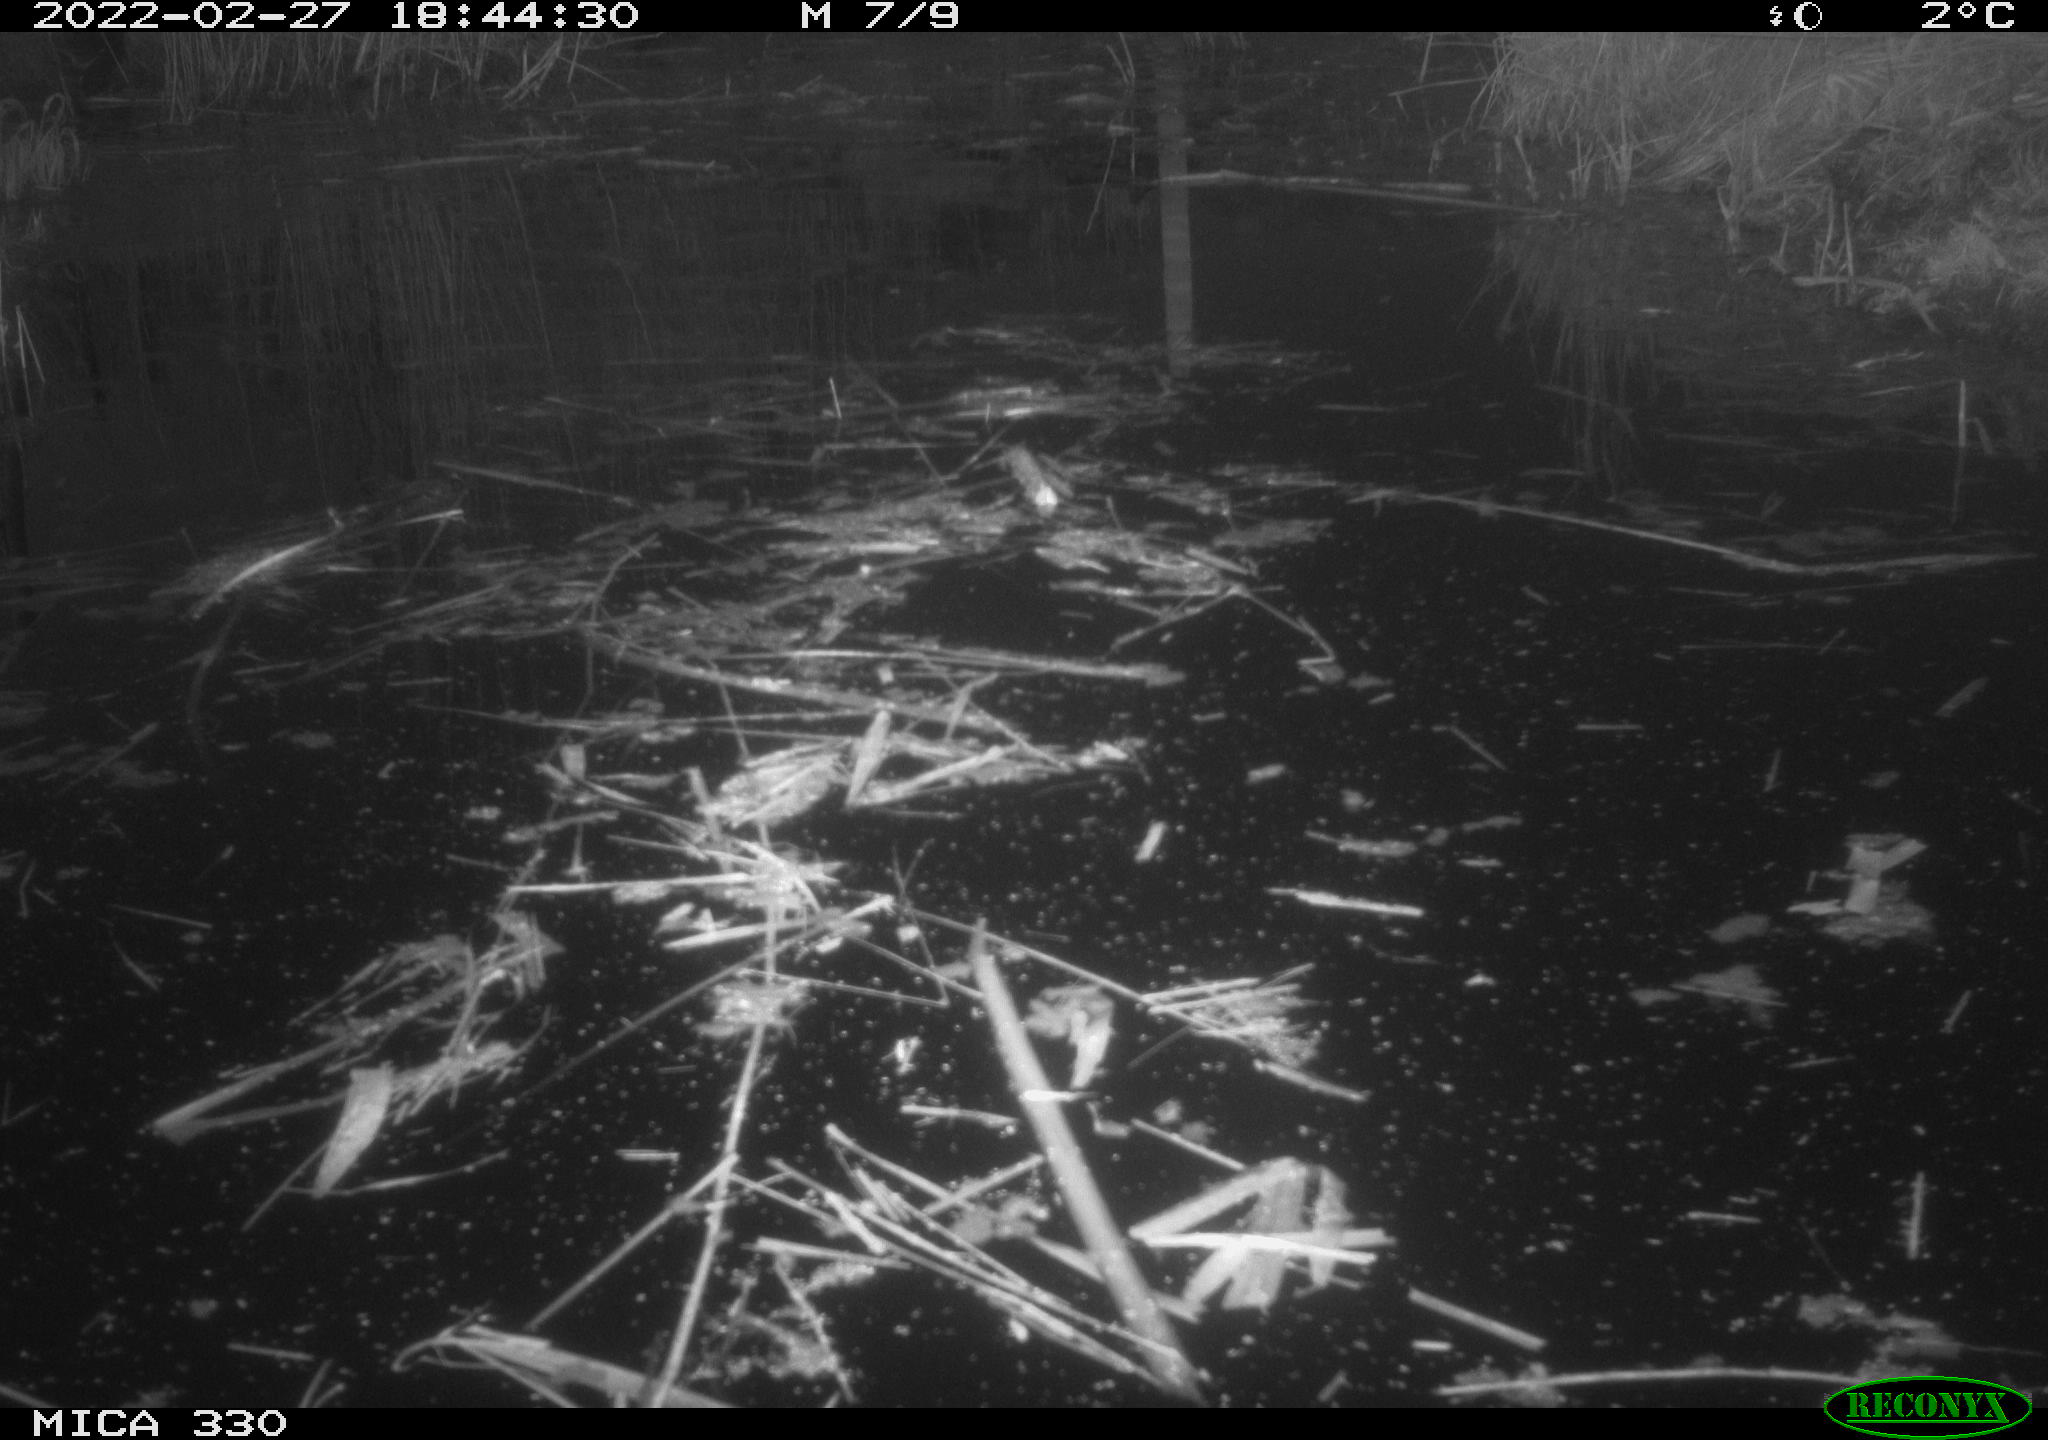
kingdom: Animalia
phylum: Chordata
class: Aves
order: Gruiformes
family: Rallidae
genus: Gallinula
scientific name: Gallinula chloropus
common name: Common moorhen
